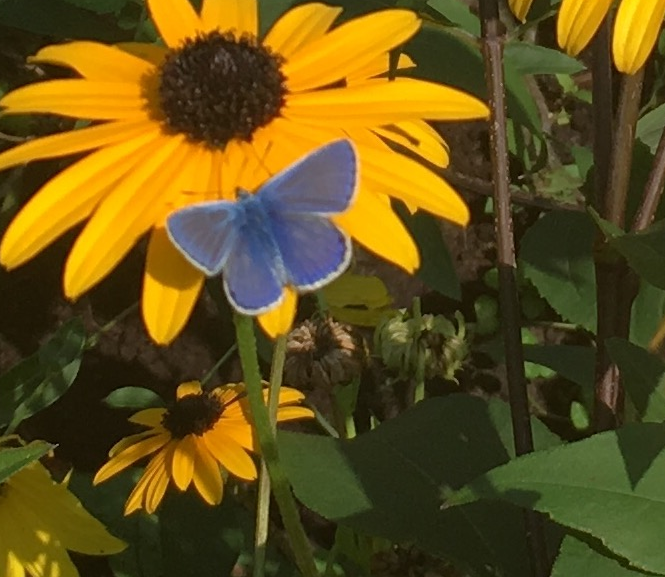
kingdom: Animalia
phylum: Arthropoda
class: Insecta
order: Lepidoptera
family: Lycaenidae
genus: Polyommatus
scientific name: Polyommatus icarus
